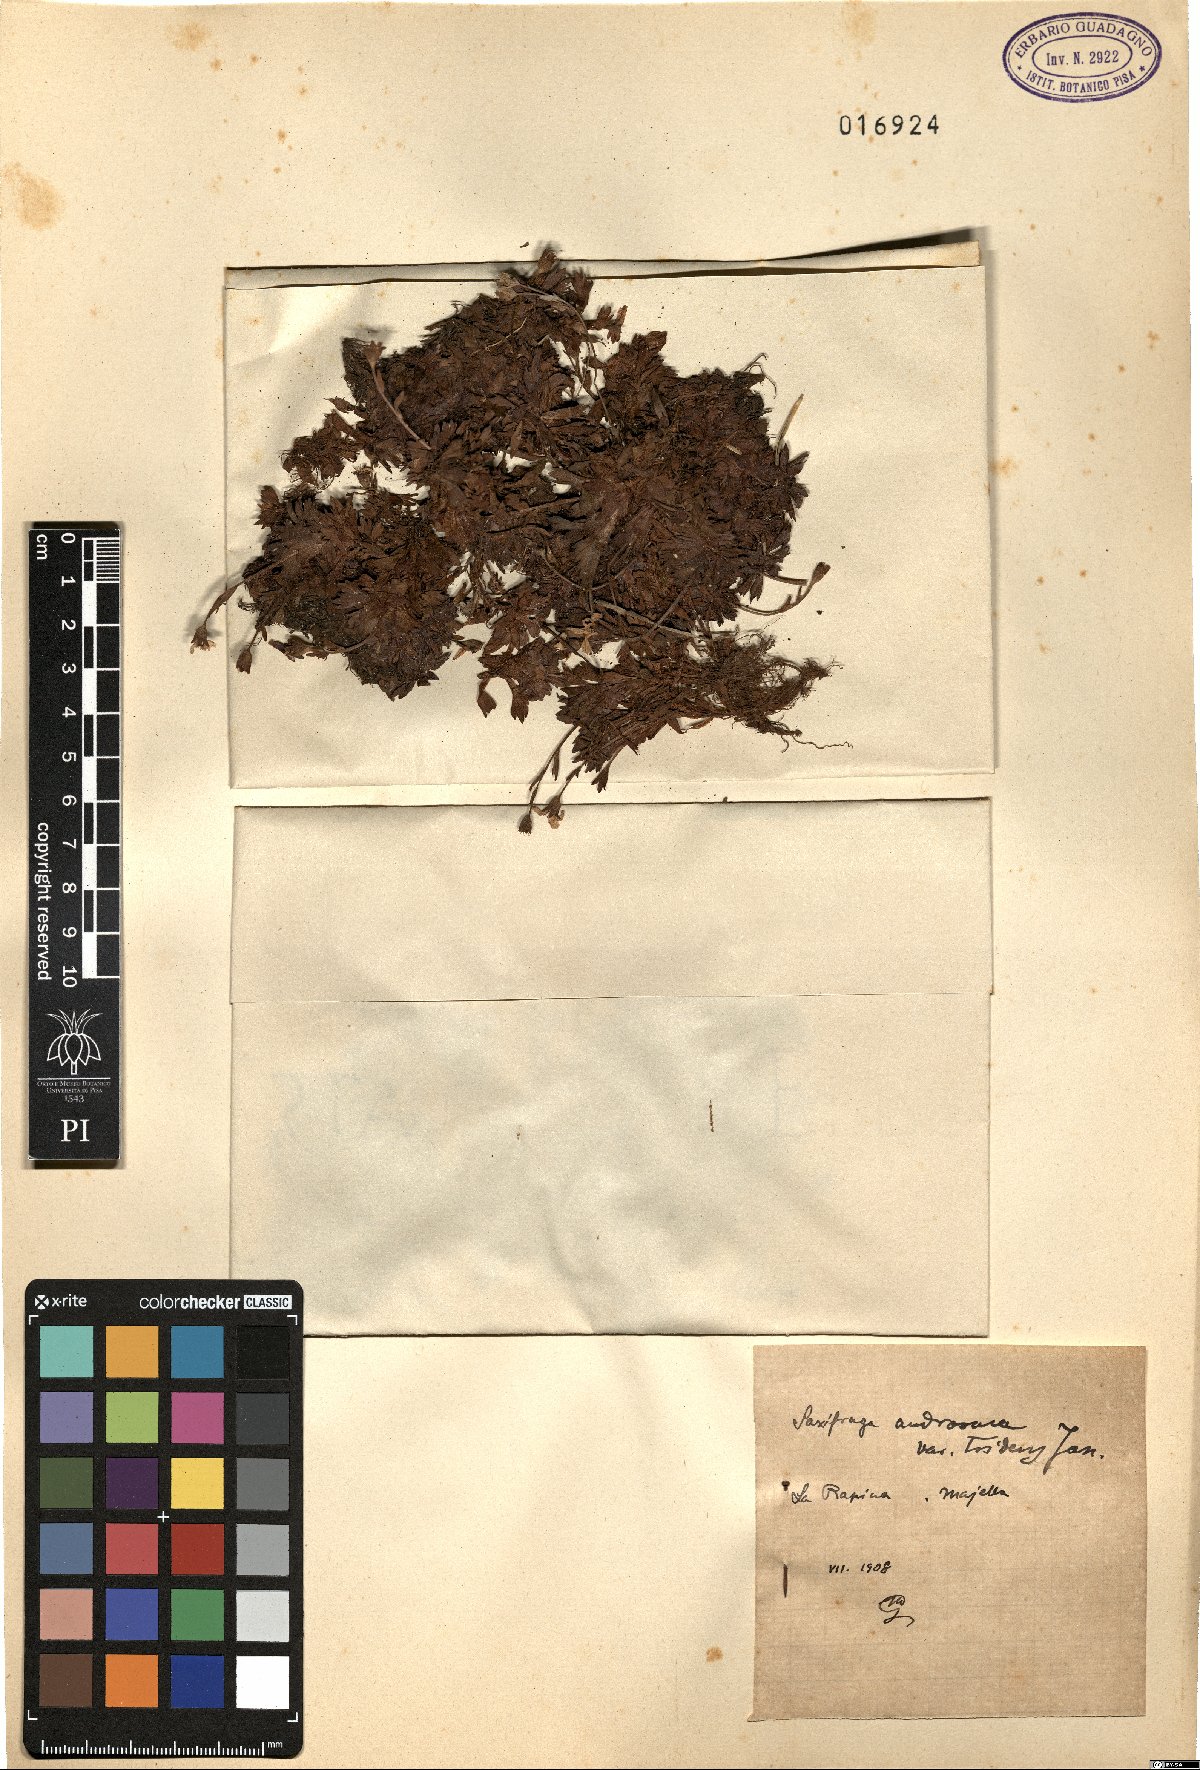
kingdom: Plantae
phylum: Tracheophyta
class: Magnoliopsida
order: Saxifragales
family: Saxifragaceae
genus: Saxifraga
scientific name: Saxifraga italica
